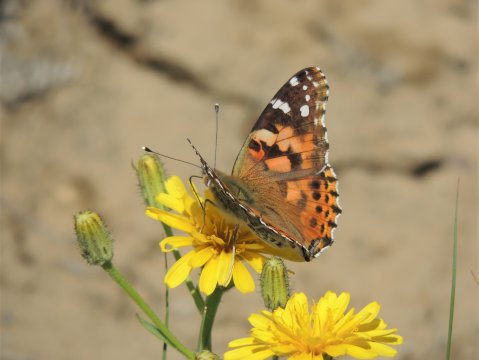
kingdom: Animalia
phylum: Arthropoda
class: Insecta
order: Lepidoptera
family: Nymphalidae
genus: Vanessa
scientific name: Vanessa cardui
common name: Painted Lady
